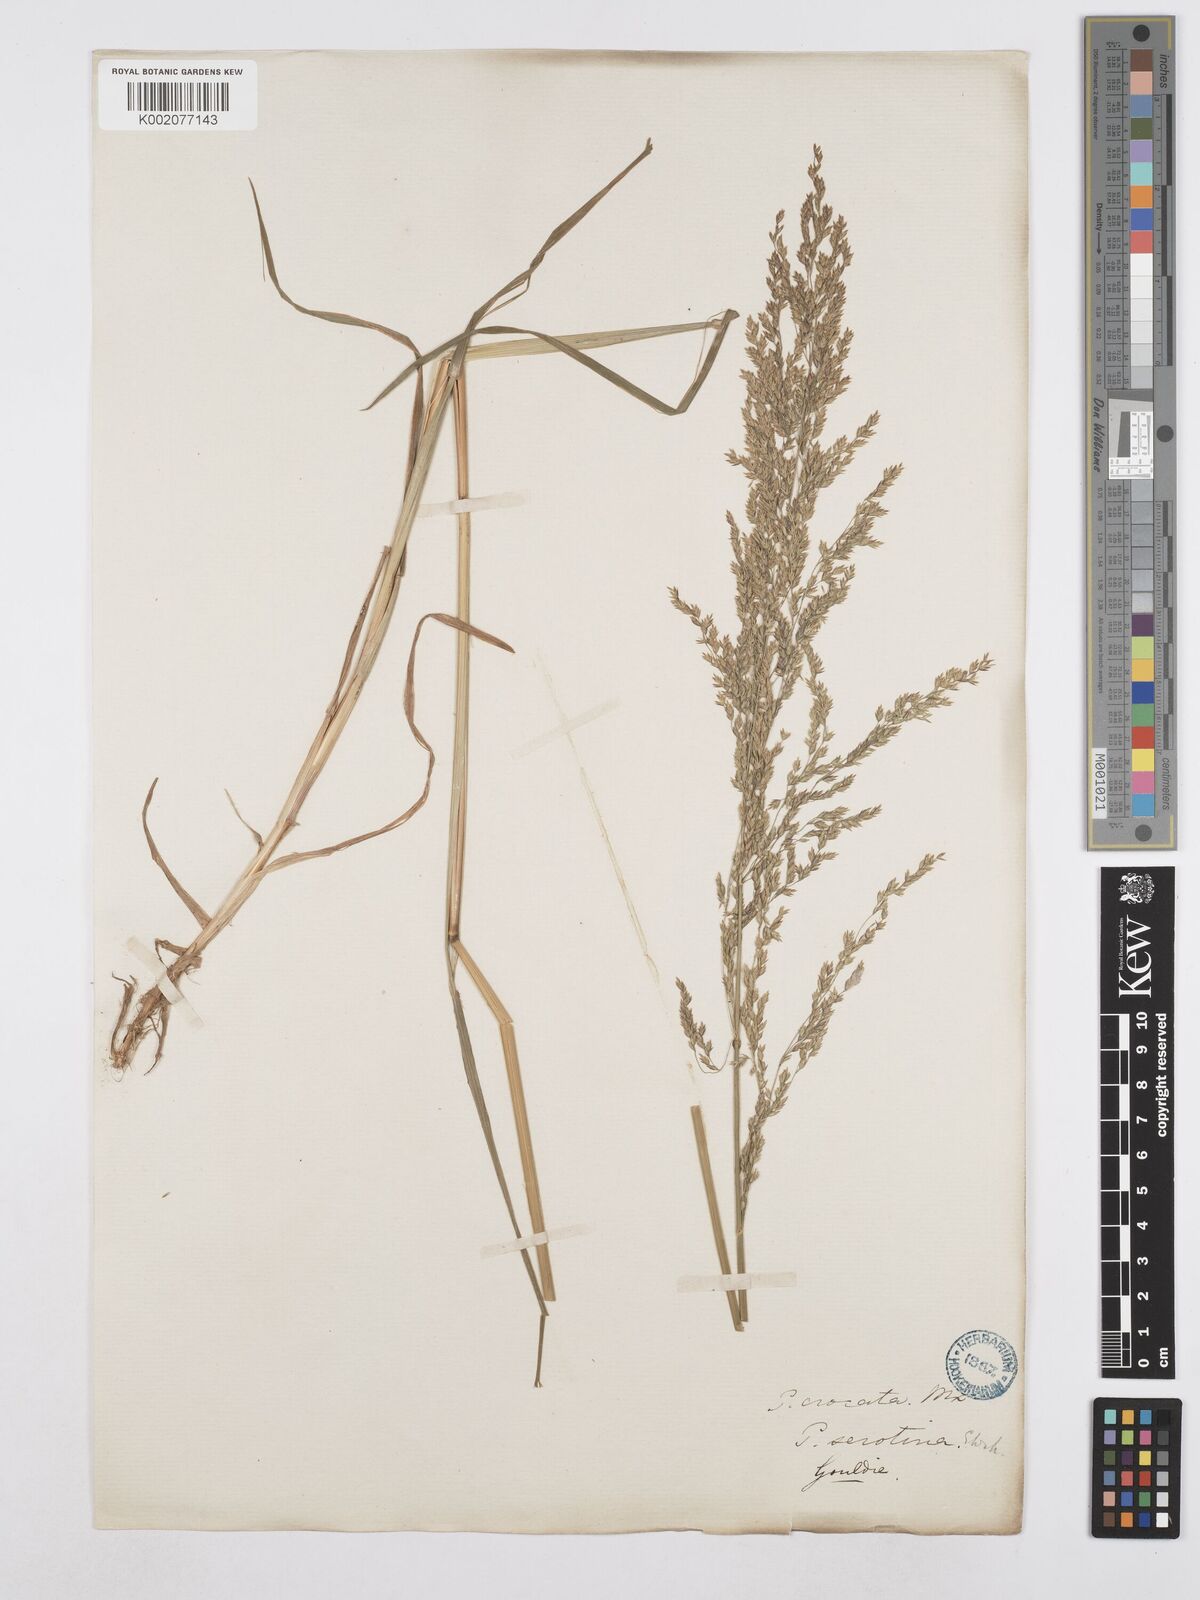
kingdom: Plantae
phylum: Tracheophyta
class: Liliopsida
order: Poales
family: Poaceae
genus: Poa
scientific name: Poa palustris
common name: Swamp meadow-grass
